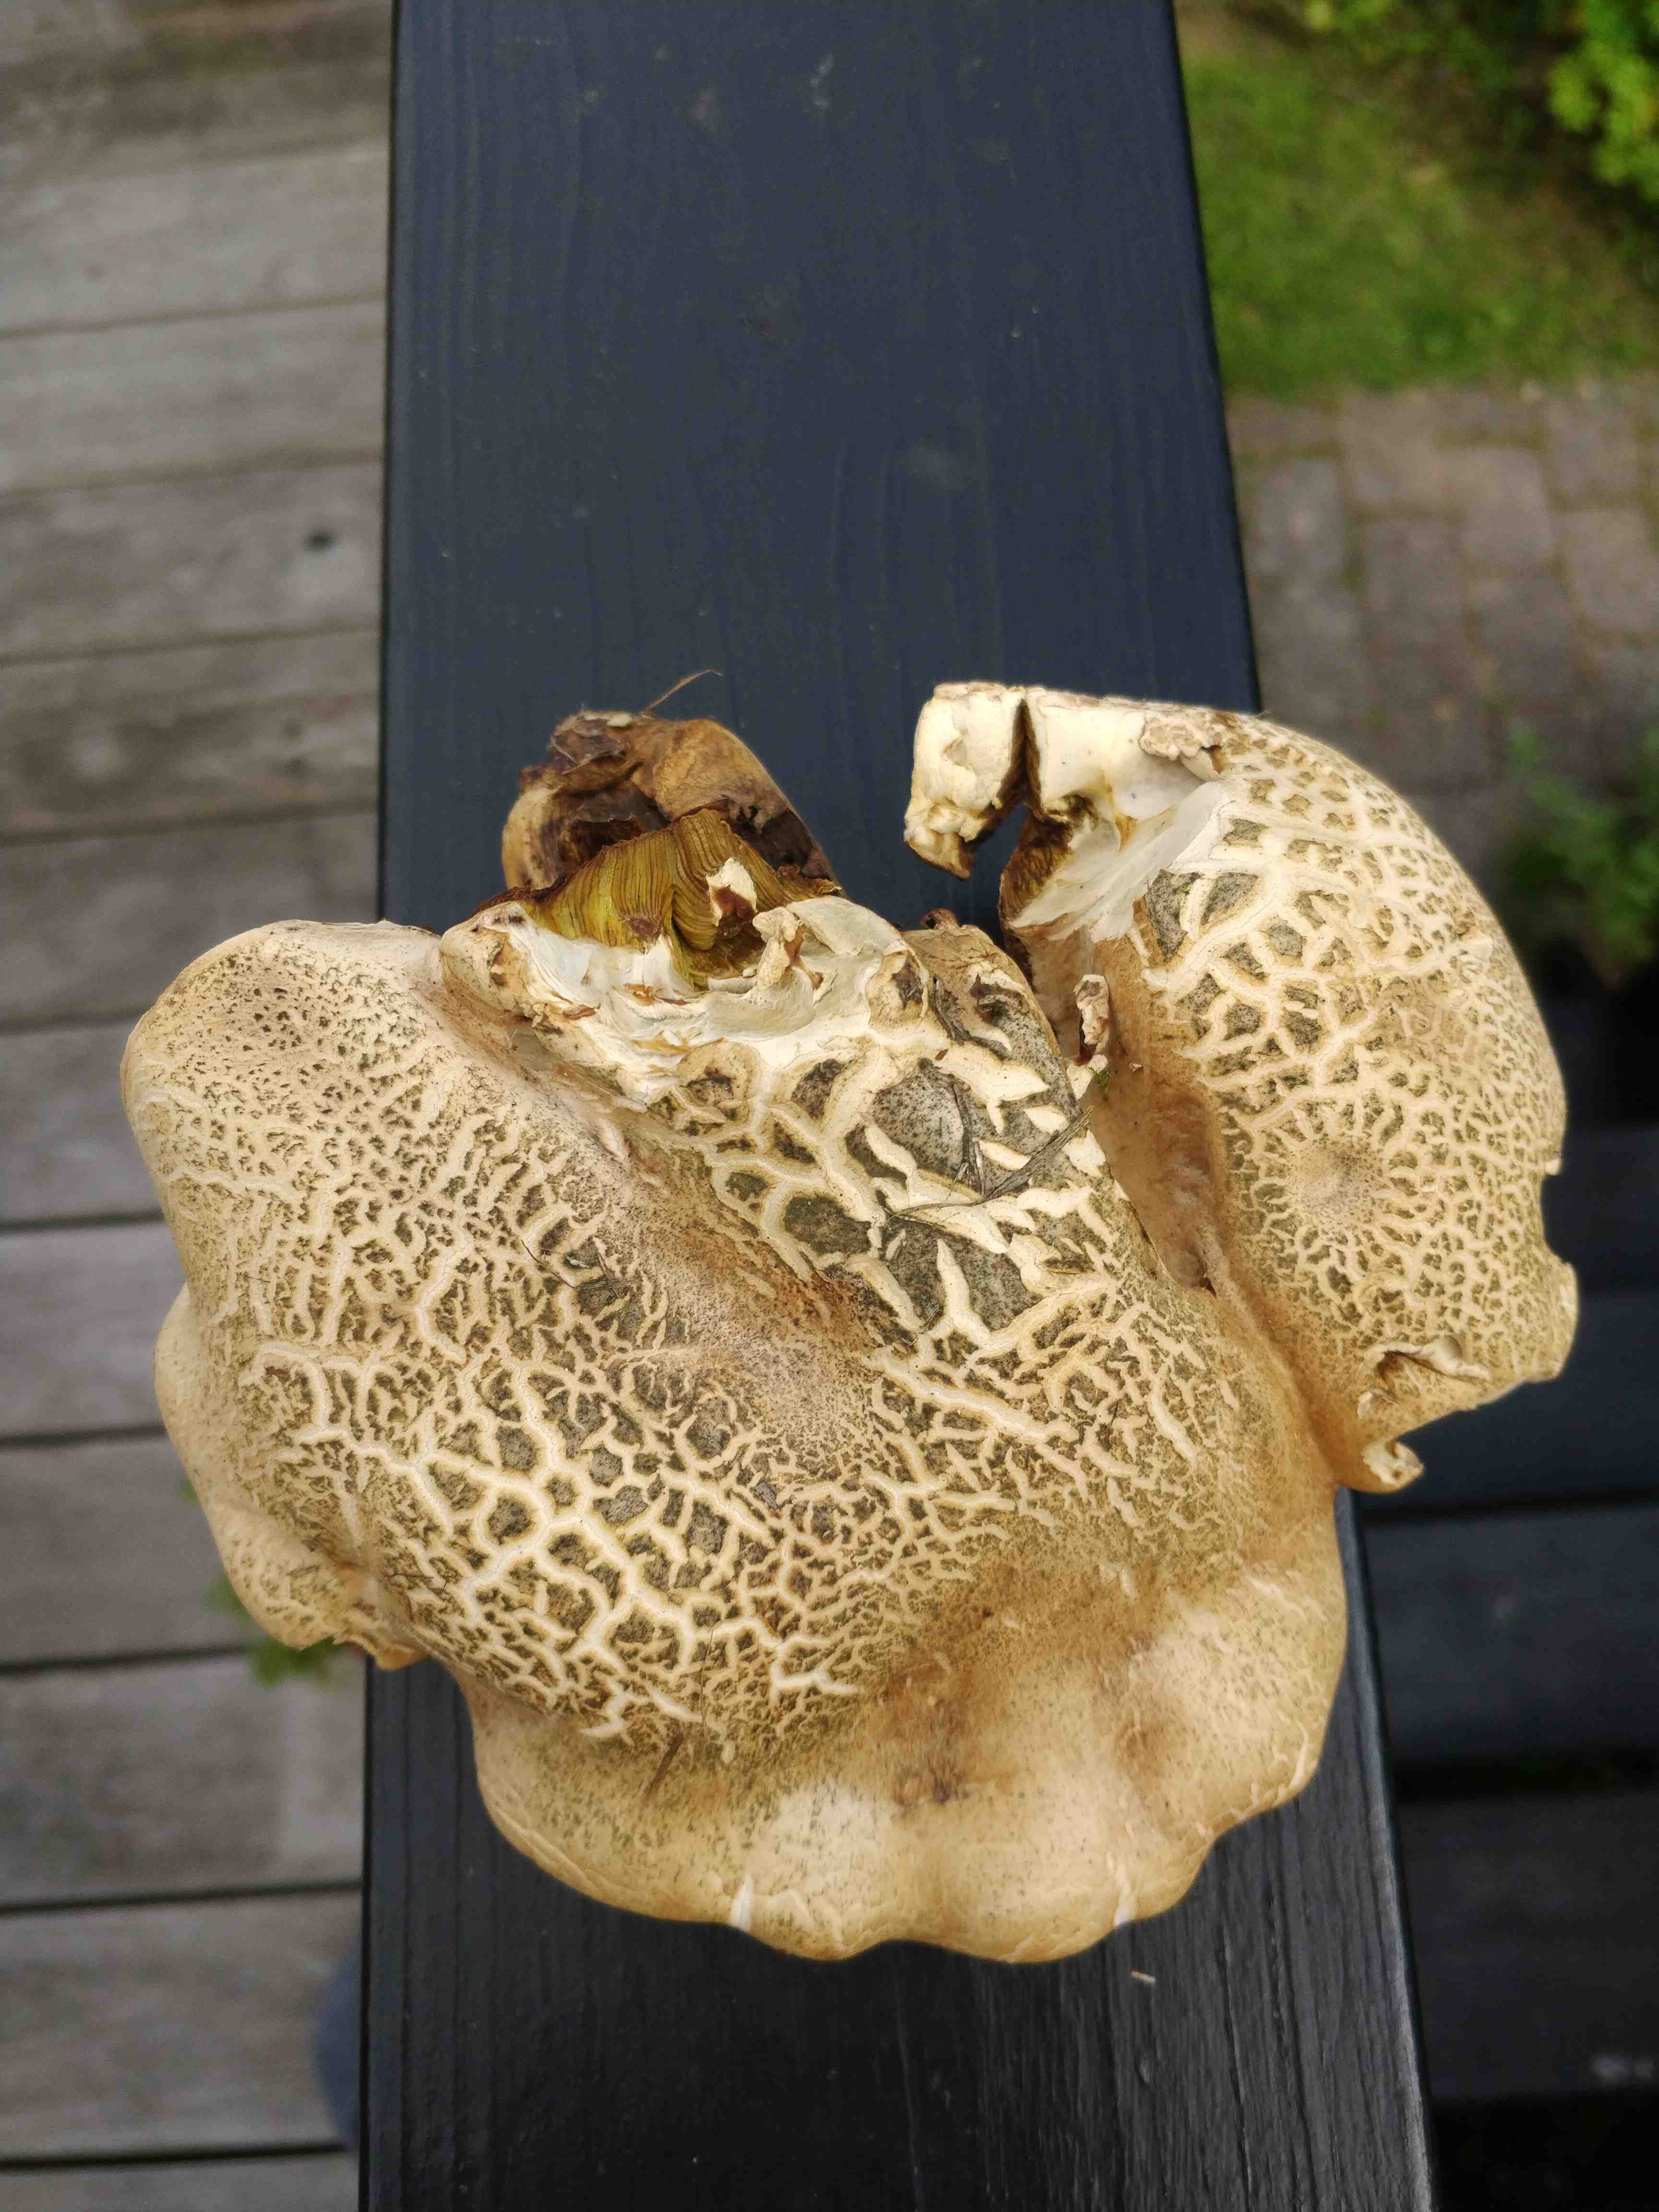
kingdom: Fungi
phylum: Basidiomycota
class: Agaricomycetes
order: Boletales
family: Boletaceae
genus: Caloboletus
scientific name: Caloboletus radicans
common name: rod-rørhat
